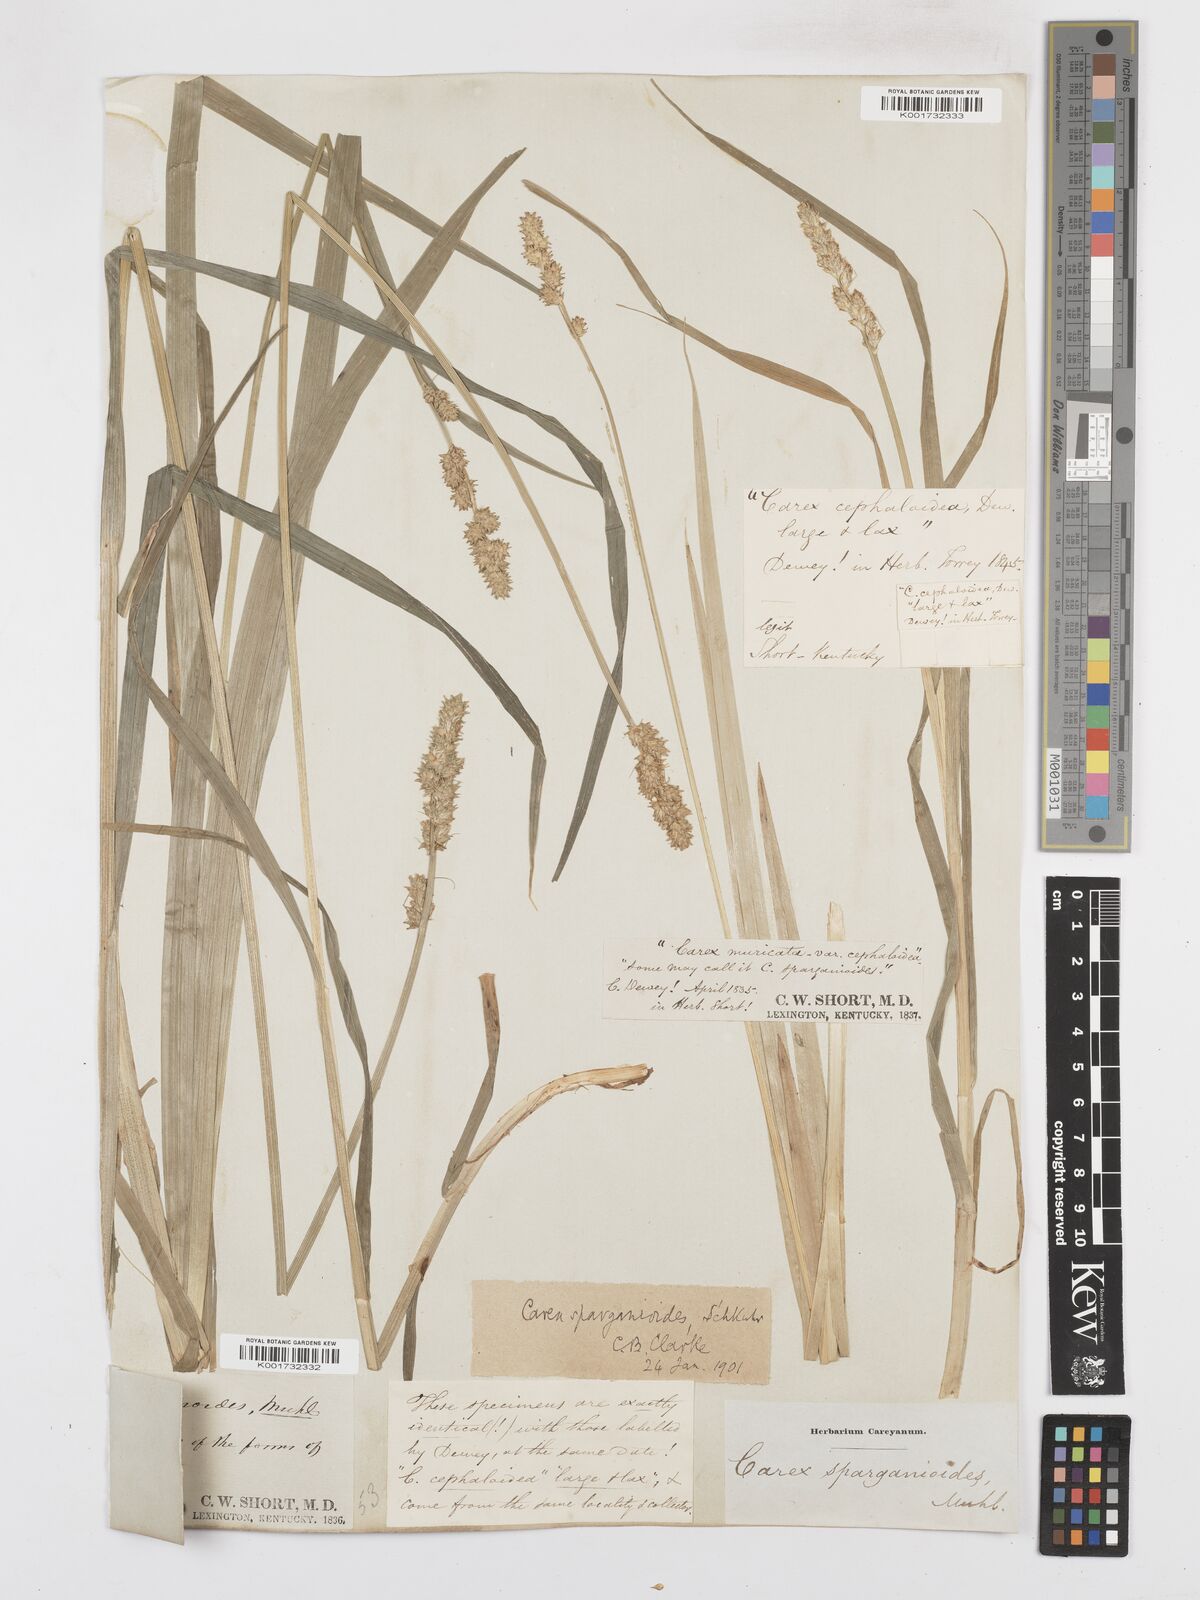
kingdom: Plantae
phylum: Tracheophyta
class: Liliopsida
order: Poales
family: Cyperaceae
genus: Carex
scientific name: Carex sparganioides
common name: Burreed sedge
